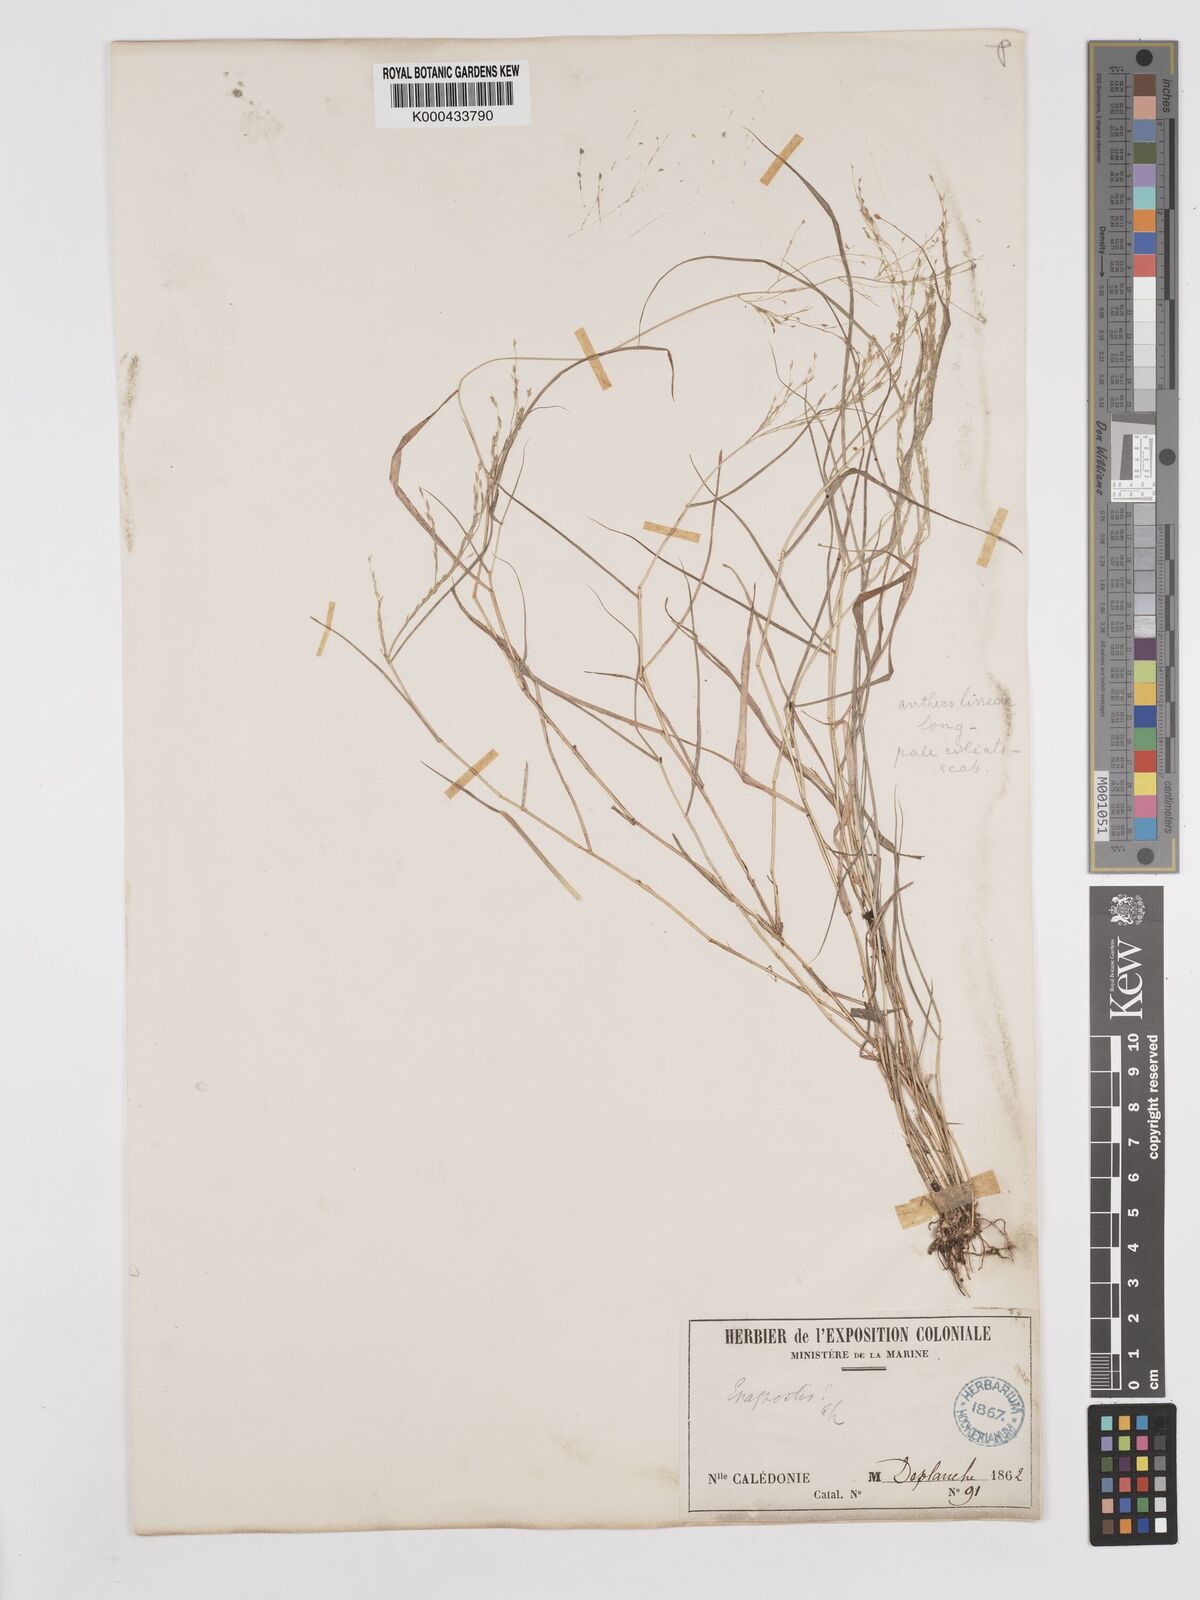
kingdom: Plantae
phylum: Tracheophyta
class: Liliopsida
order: Poales
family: Poaceae
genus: Eragrostis
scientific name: Eragrostis scabriflora
